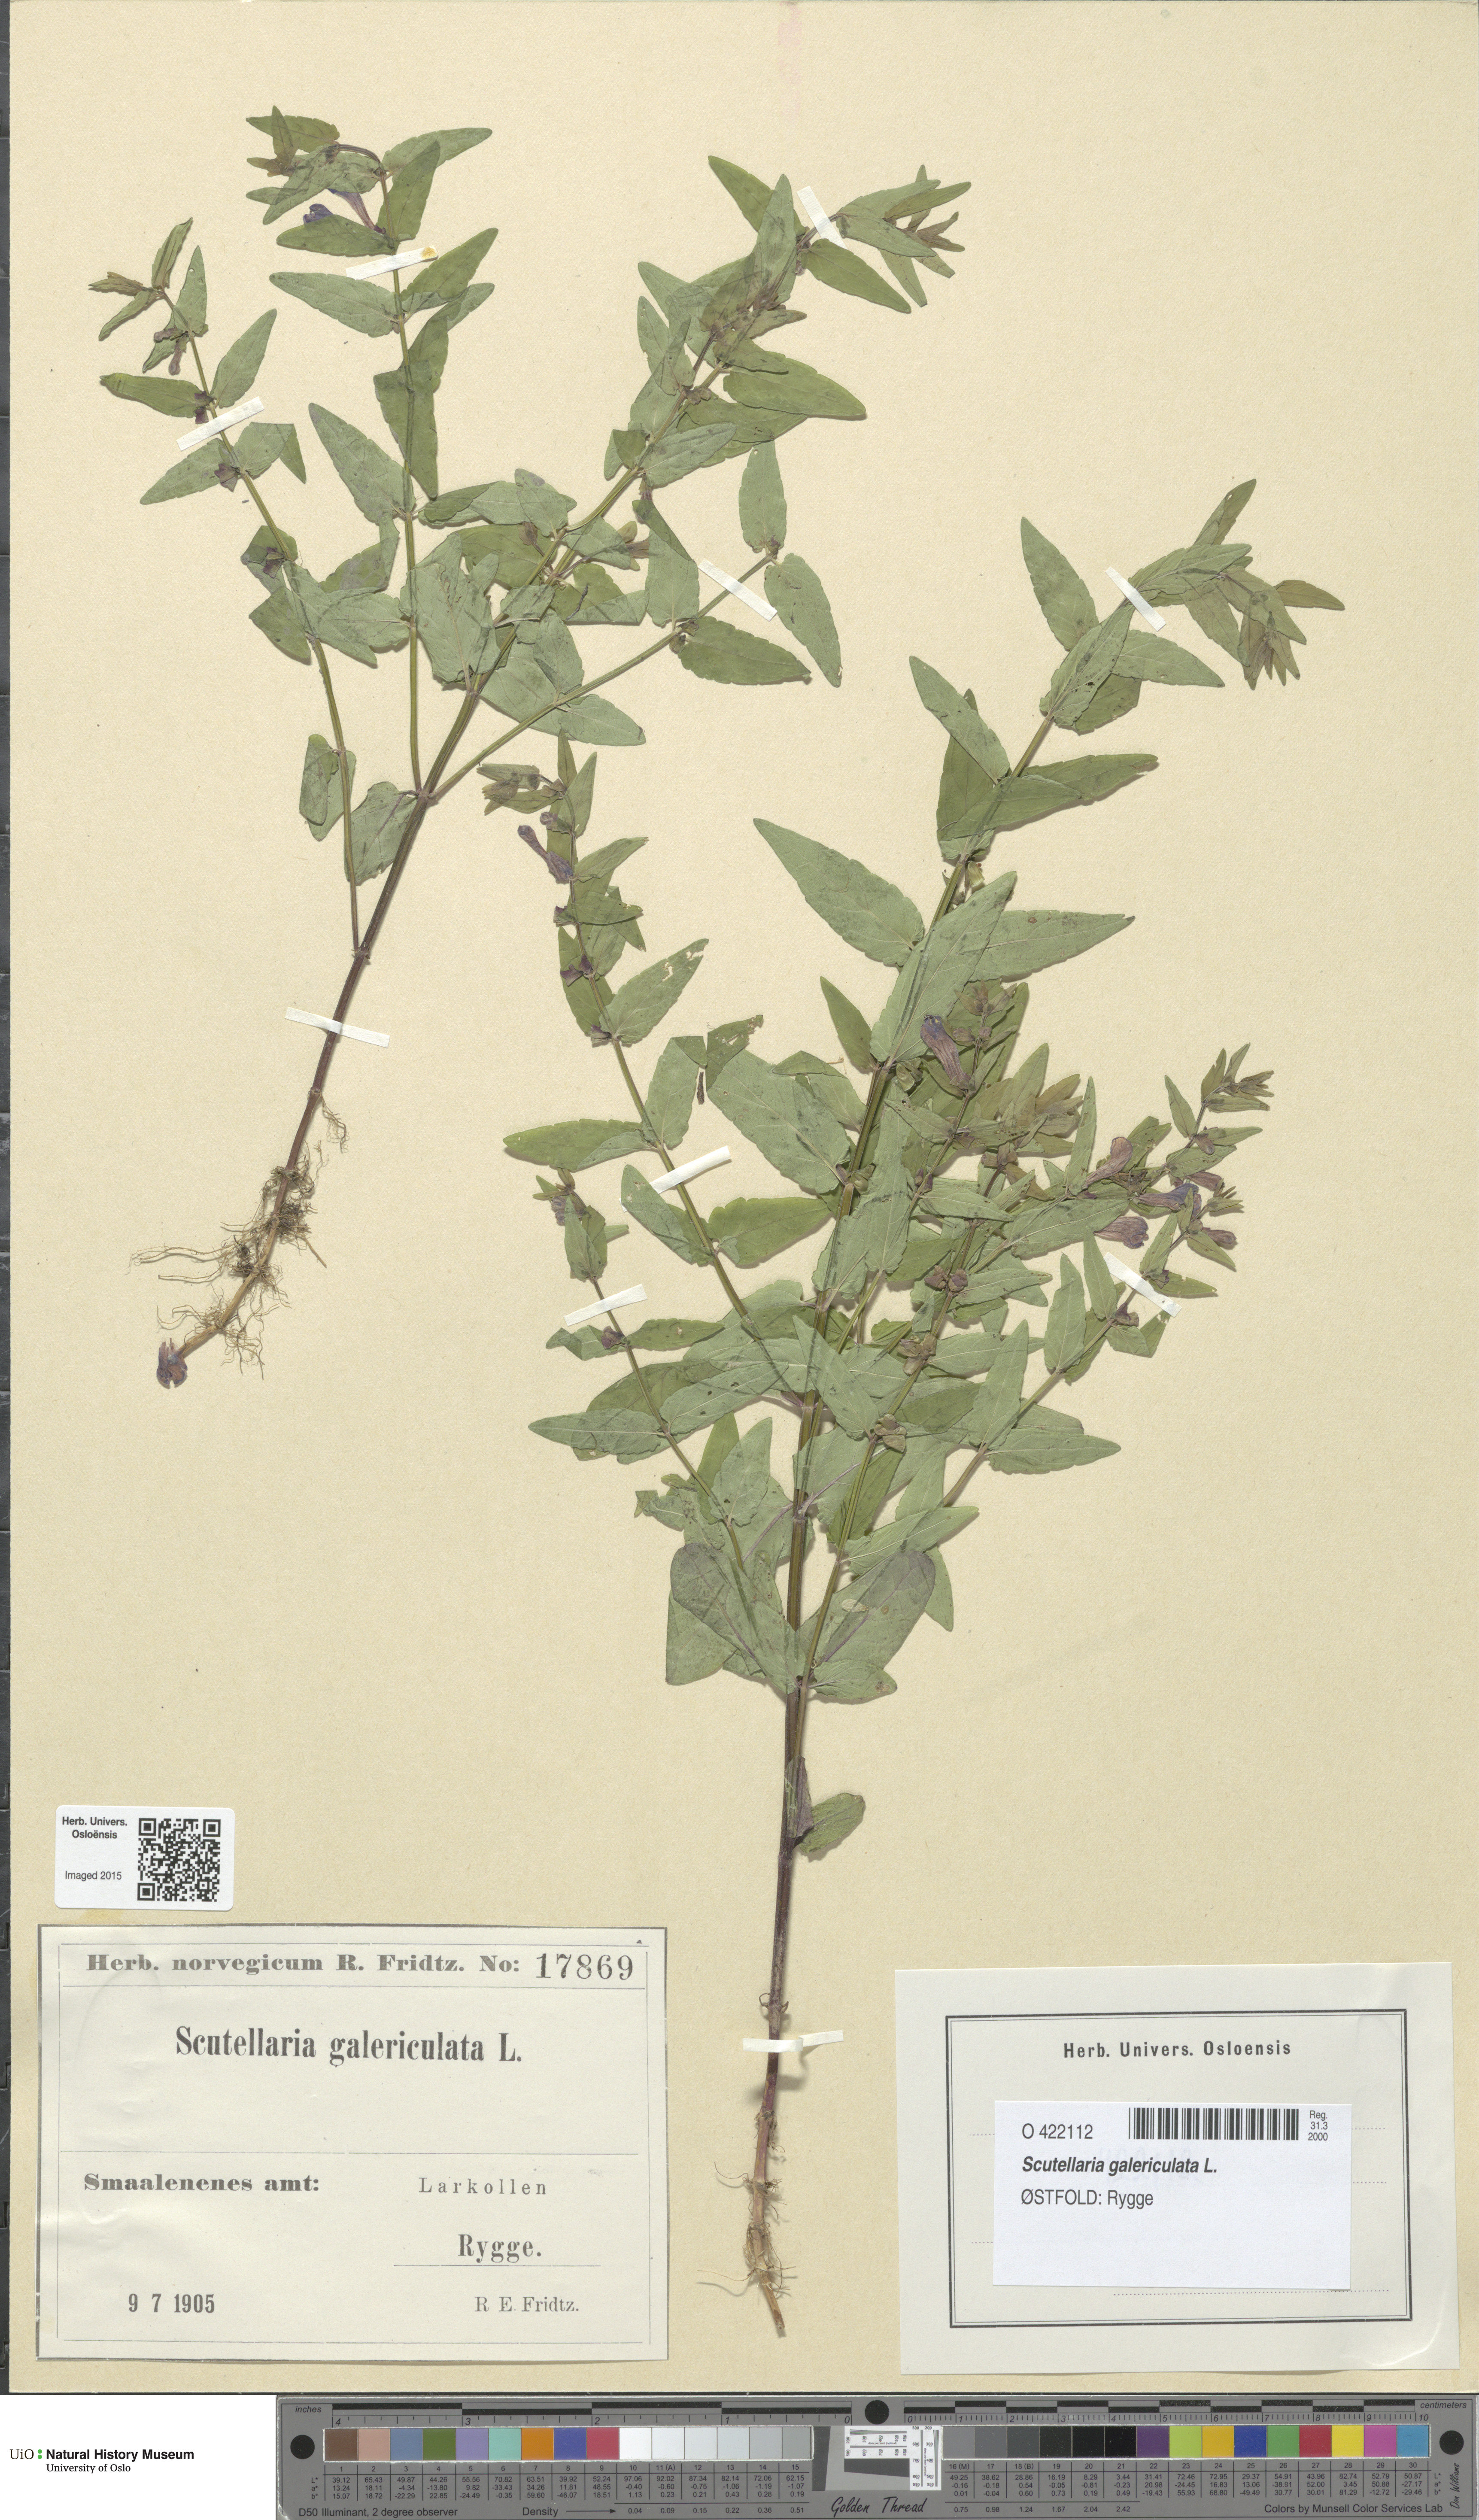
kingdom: Plantae
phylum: Tracheophyta
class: Magnoliopsida
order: Lamiales
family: Lamiaceae
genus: Scutellaria
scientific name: Scutellaria galericulata
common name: Skullcap
